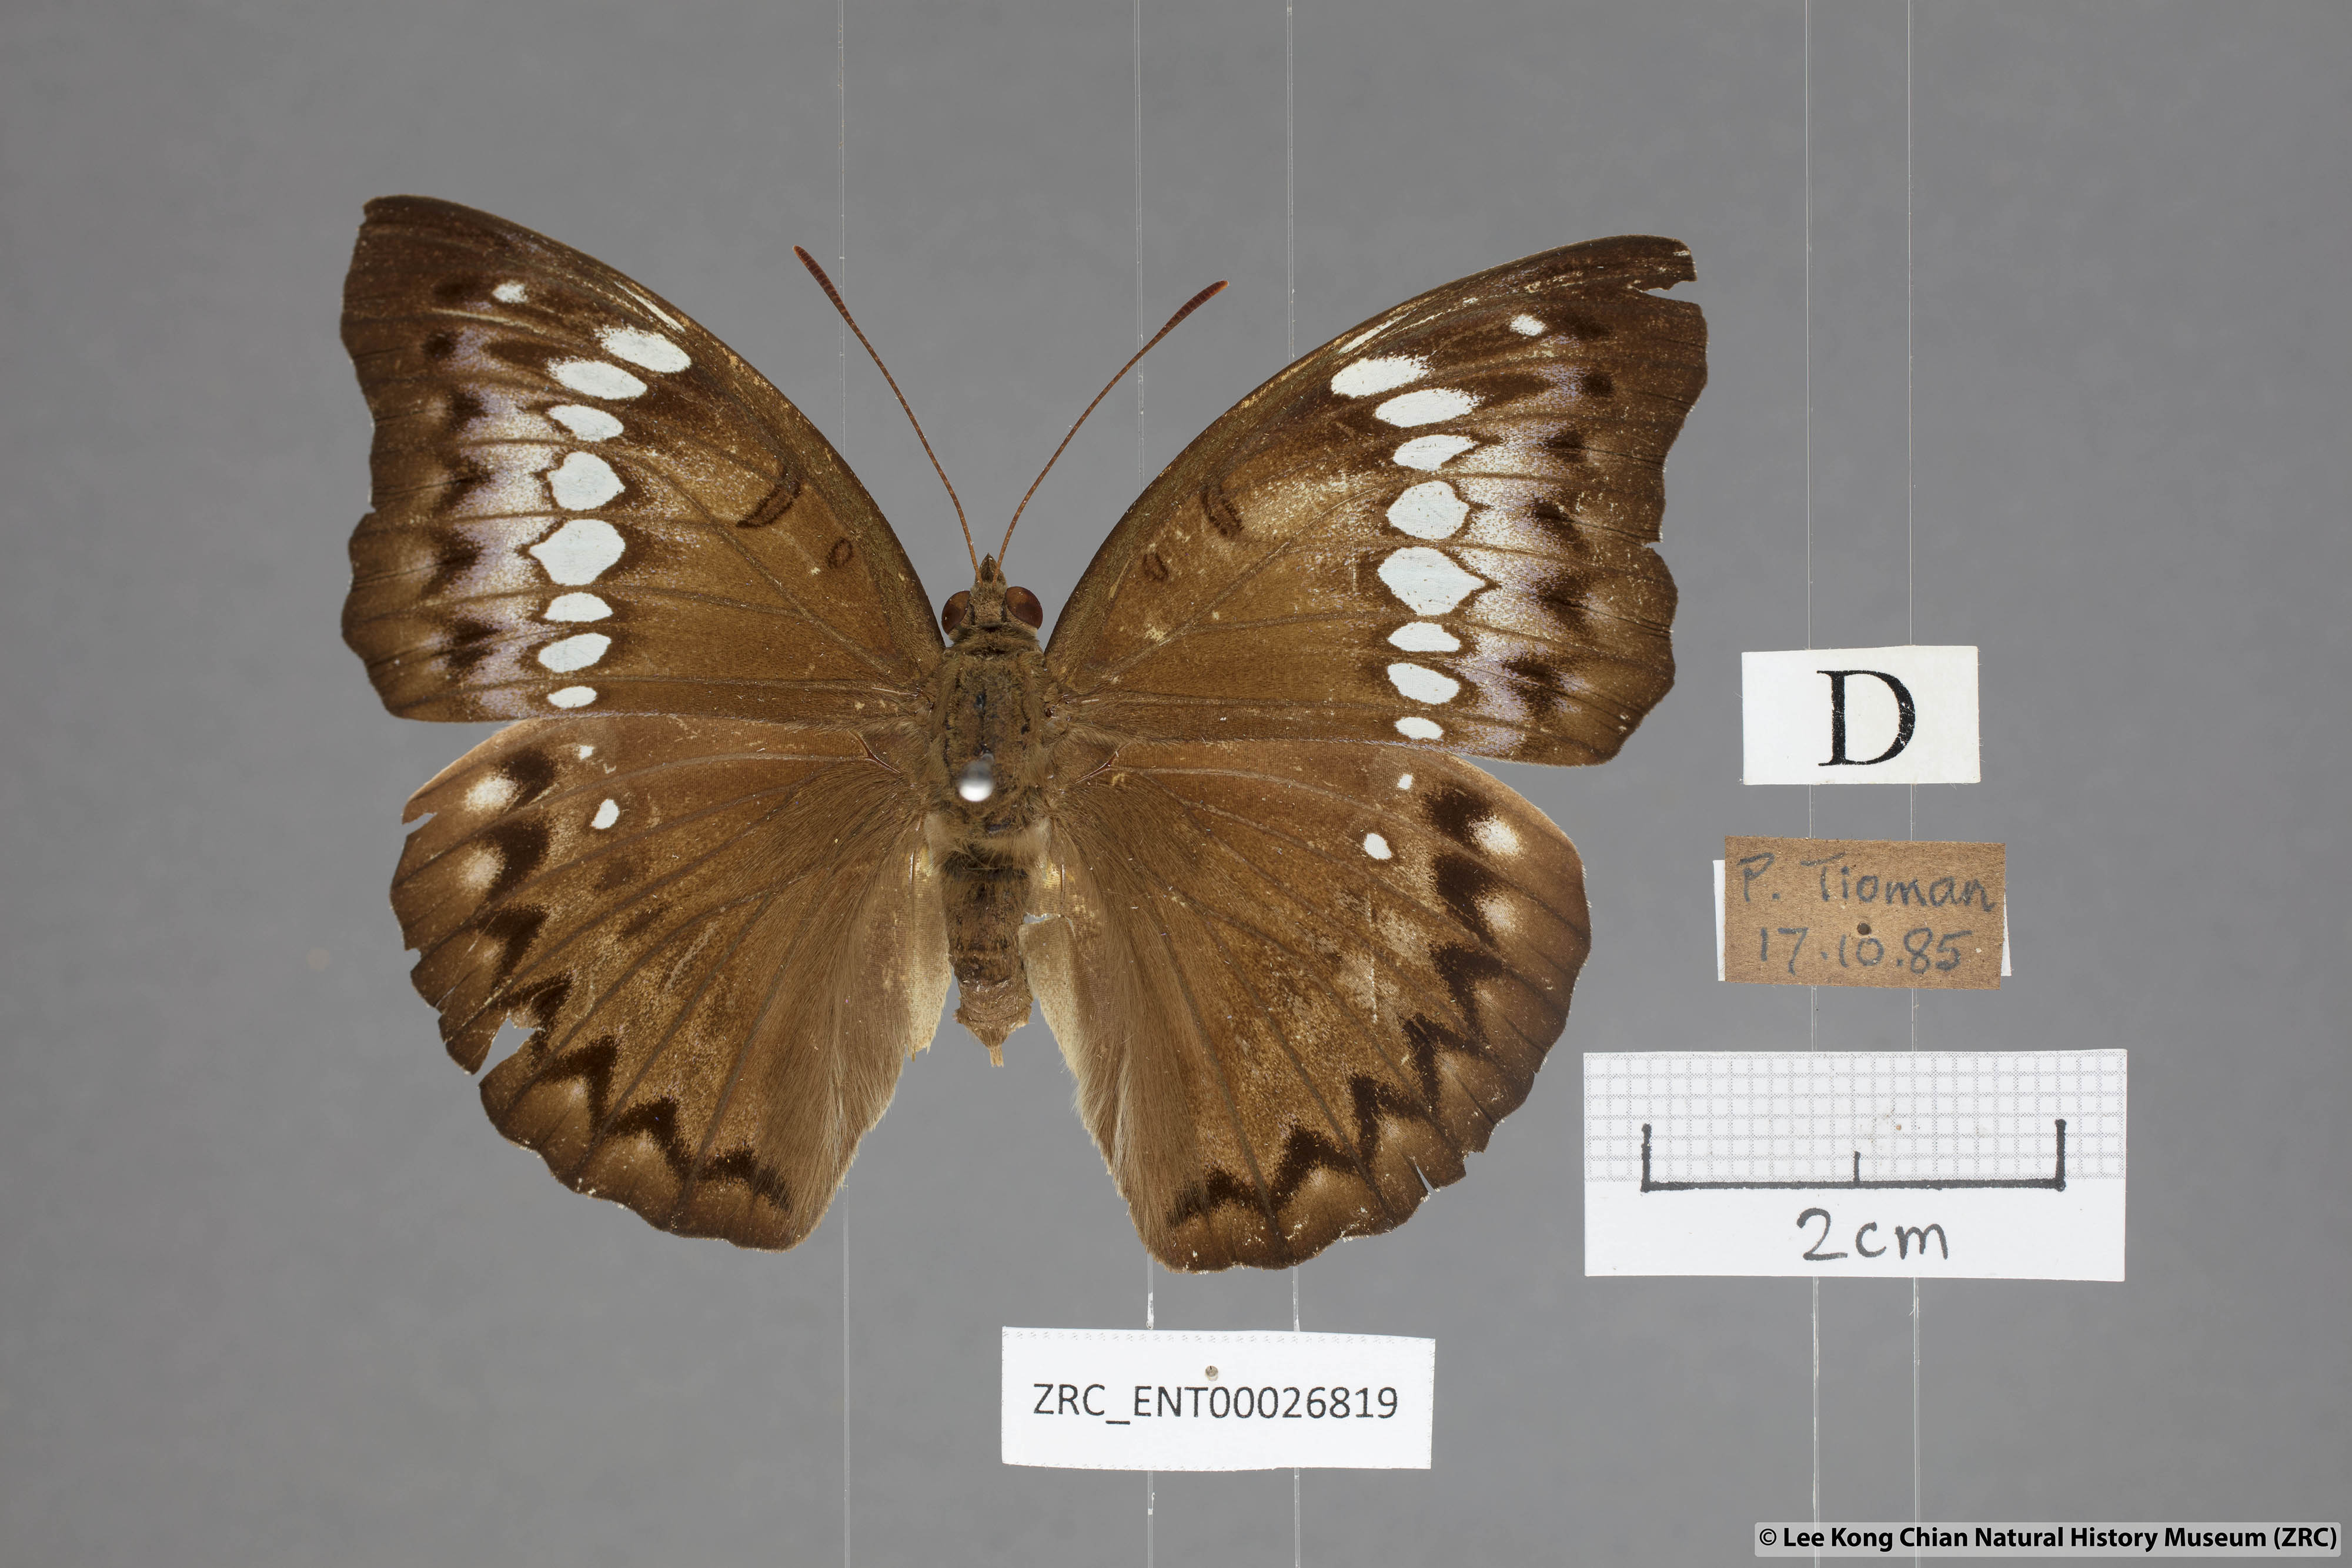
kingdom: Animalia
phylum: Arthropoda
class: Insecta
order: Lepidoptera
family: Nymphalidae
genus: Euthalia
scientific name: Euthalia Bassarona teuta
